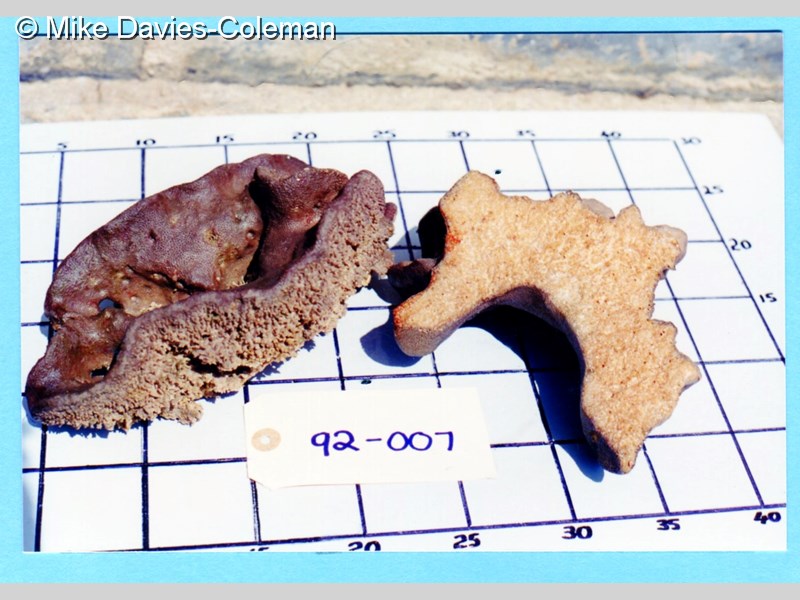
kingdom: Animalia
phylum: Porifera
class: Demospongiae
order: Clionaida
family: Clionaidae
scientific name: Clionaidae
